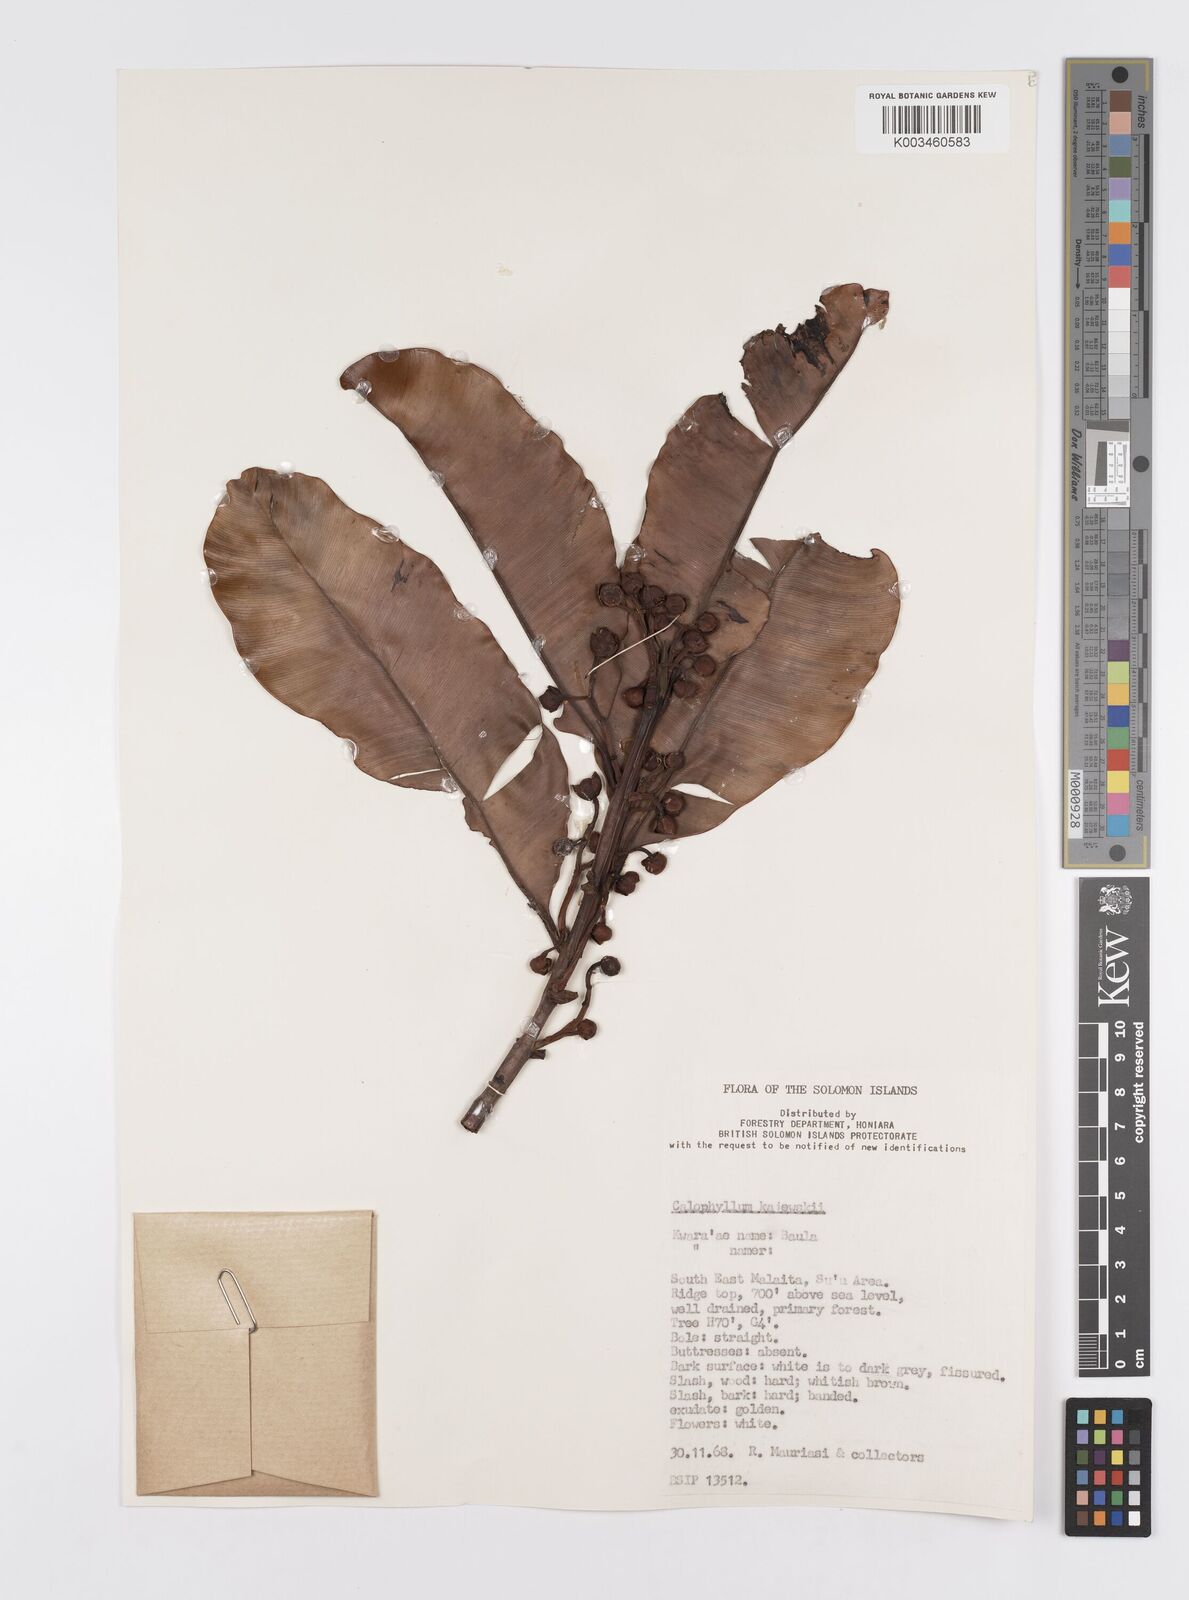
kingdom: Plantae
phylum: Tracheophyta
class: Magnoliopsida
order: Malpighiales
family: Calophyllaceae
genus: Calophyllum
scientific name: Calophyllum peekelii
